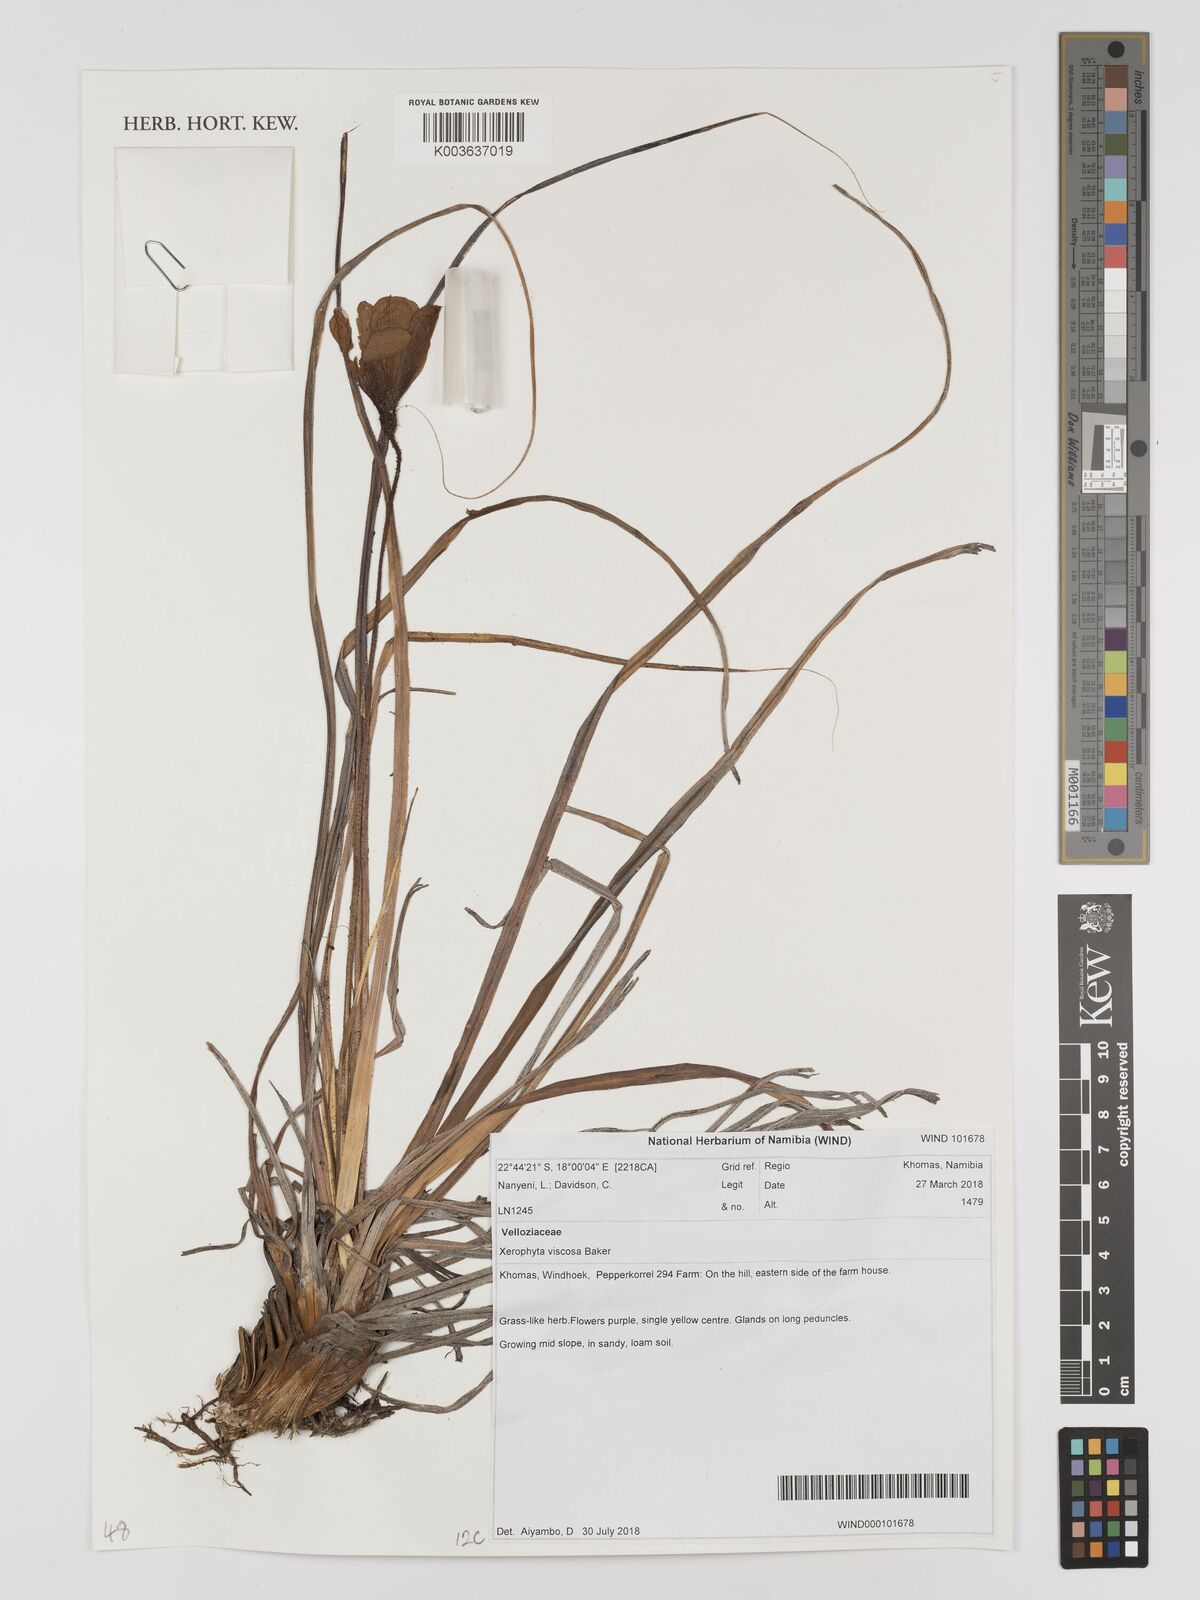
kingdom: Plantae
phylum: Tracheophyta
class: Liliopsida
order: Pandanales
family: Velloziaceae
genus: Xerophyta
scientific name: Xerophyta viscosa
